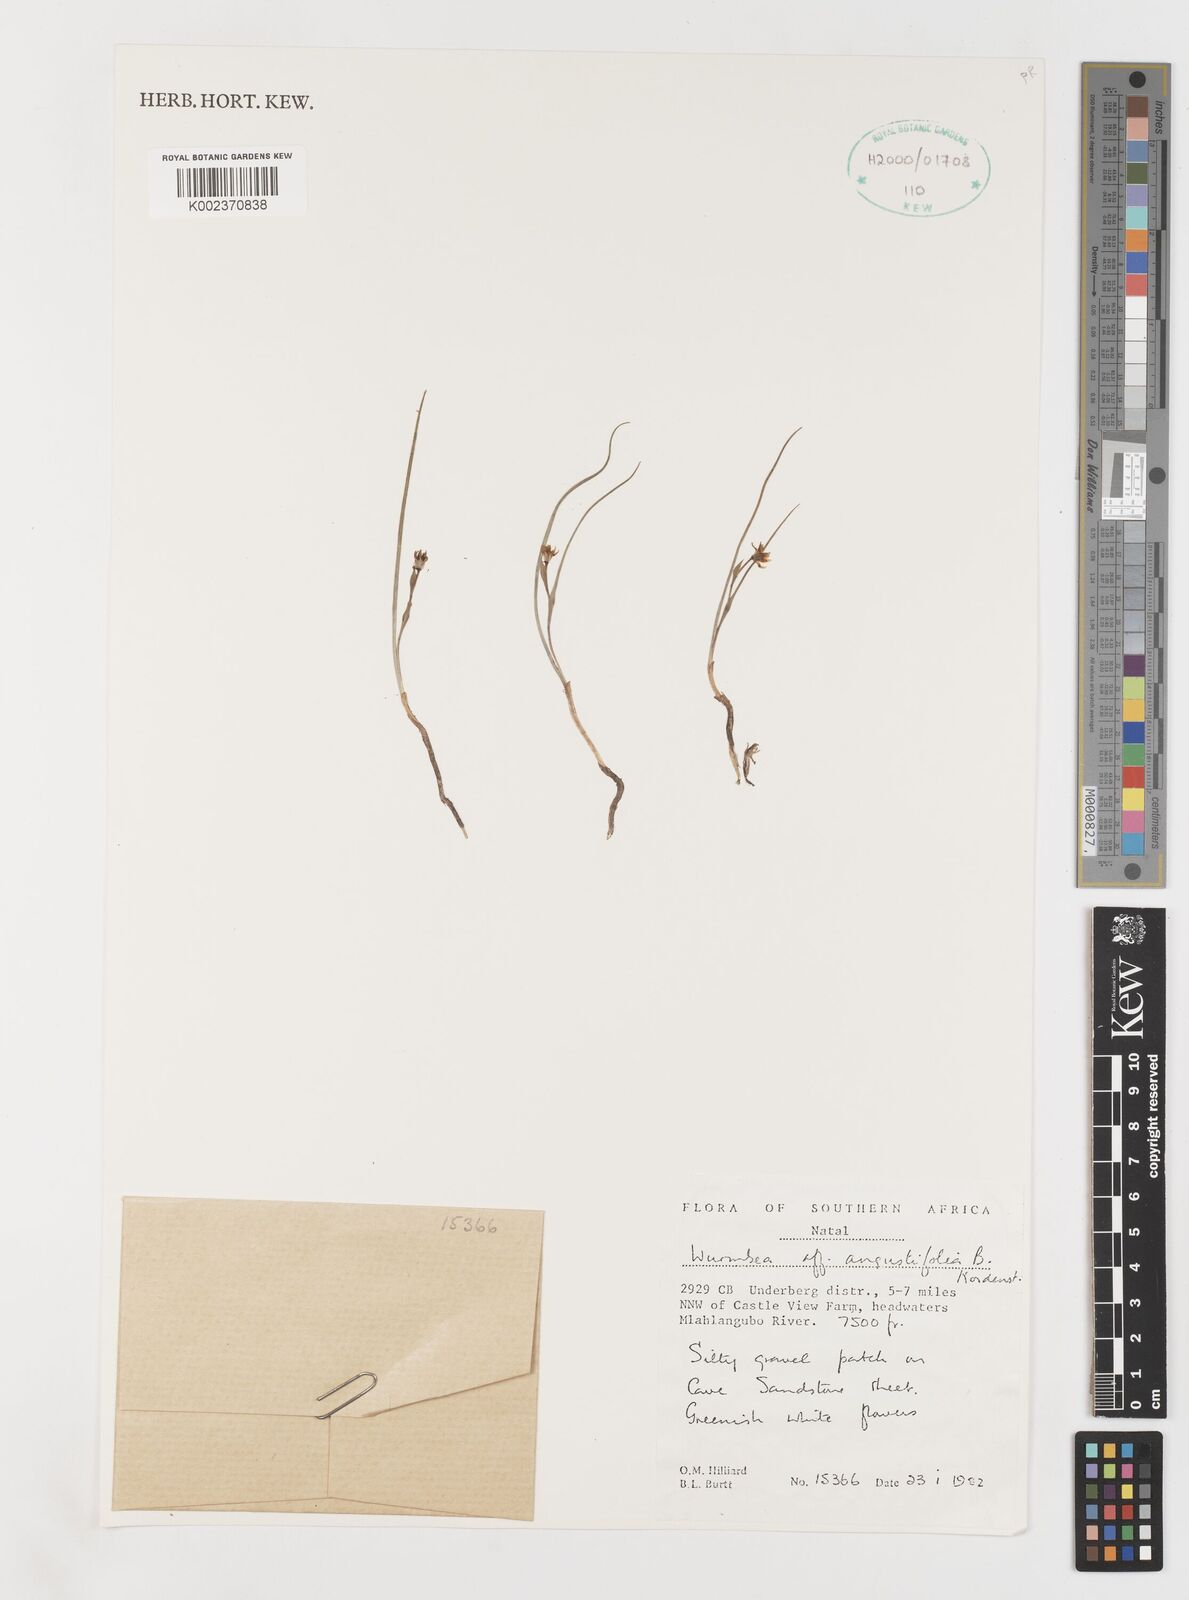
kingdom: Plantae
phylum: Tracheophyta
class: Liliopsida
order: Liliales
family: Colchicaceae
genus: Wurmbea
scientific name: Wurmbea angustifolia
